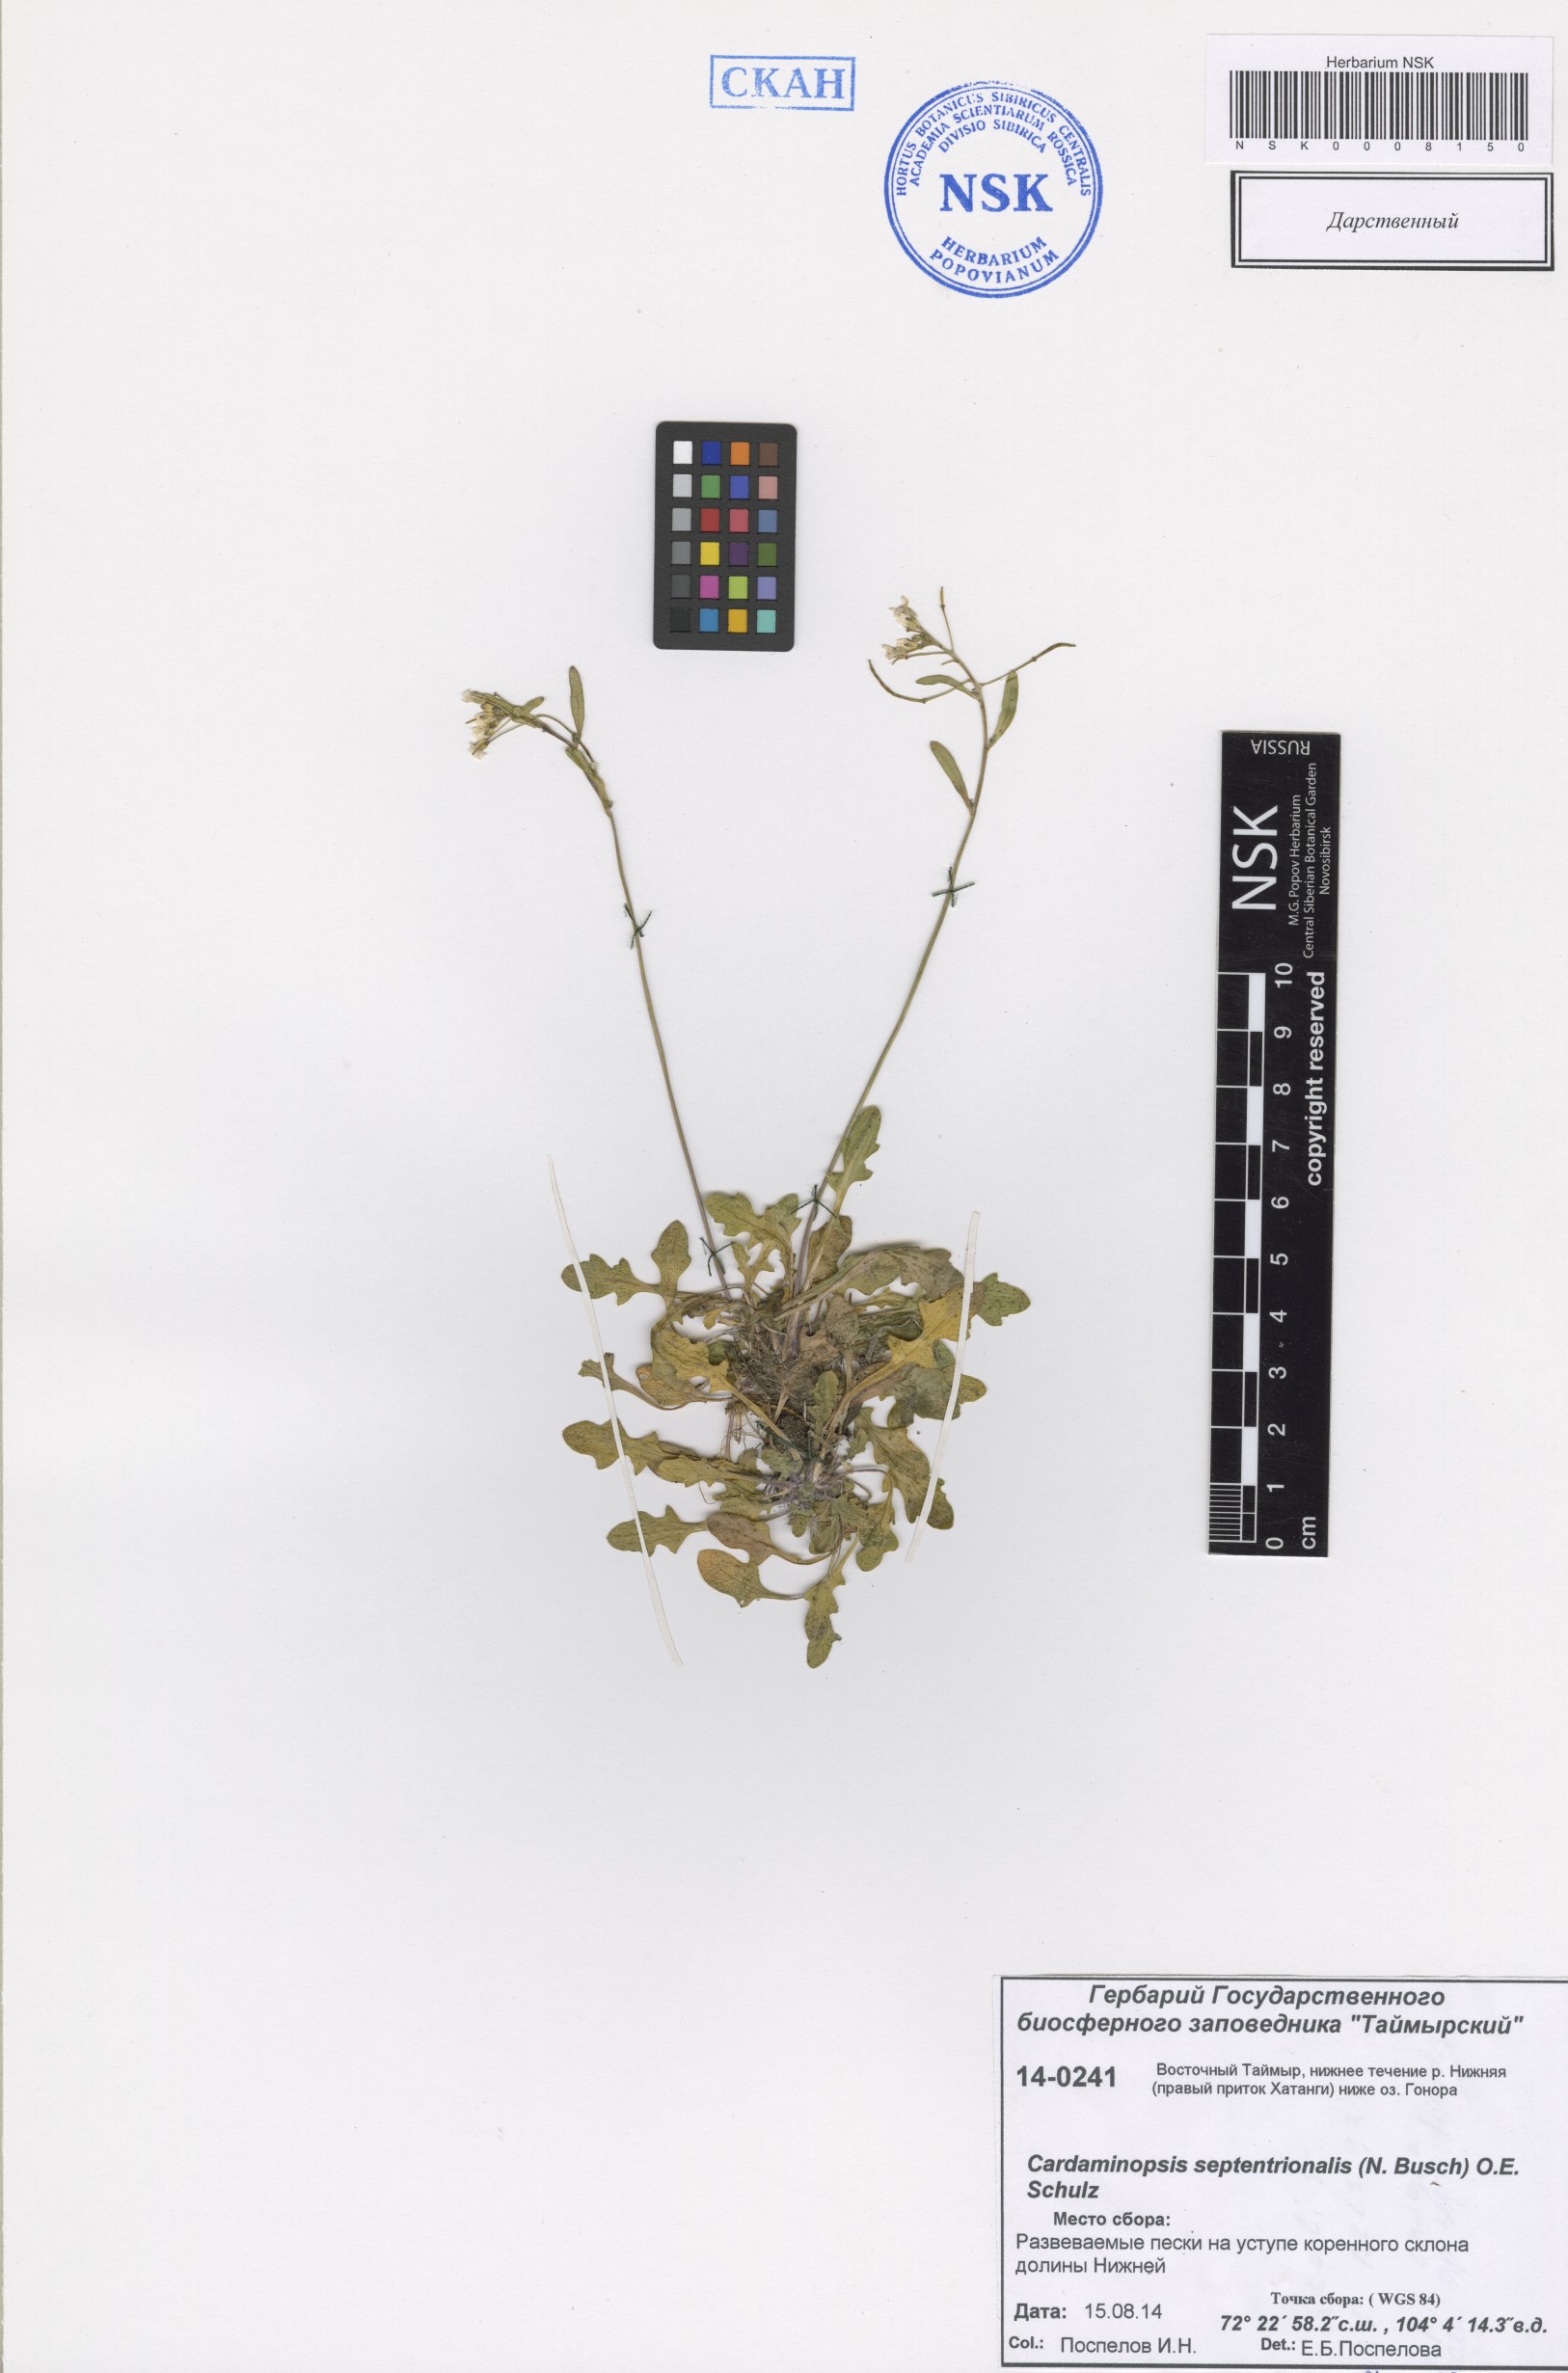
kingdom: Plantae
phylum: Tracheophyta
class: Magnoliopsida
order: Brassicales
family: Brassicaceae
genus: Arabidopsis
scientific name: Arabidopsis lyrata
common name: Lyrate rockcress
